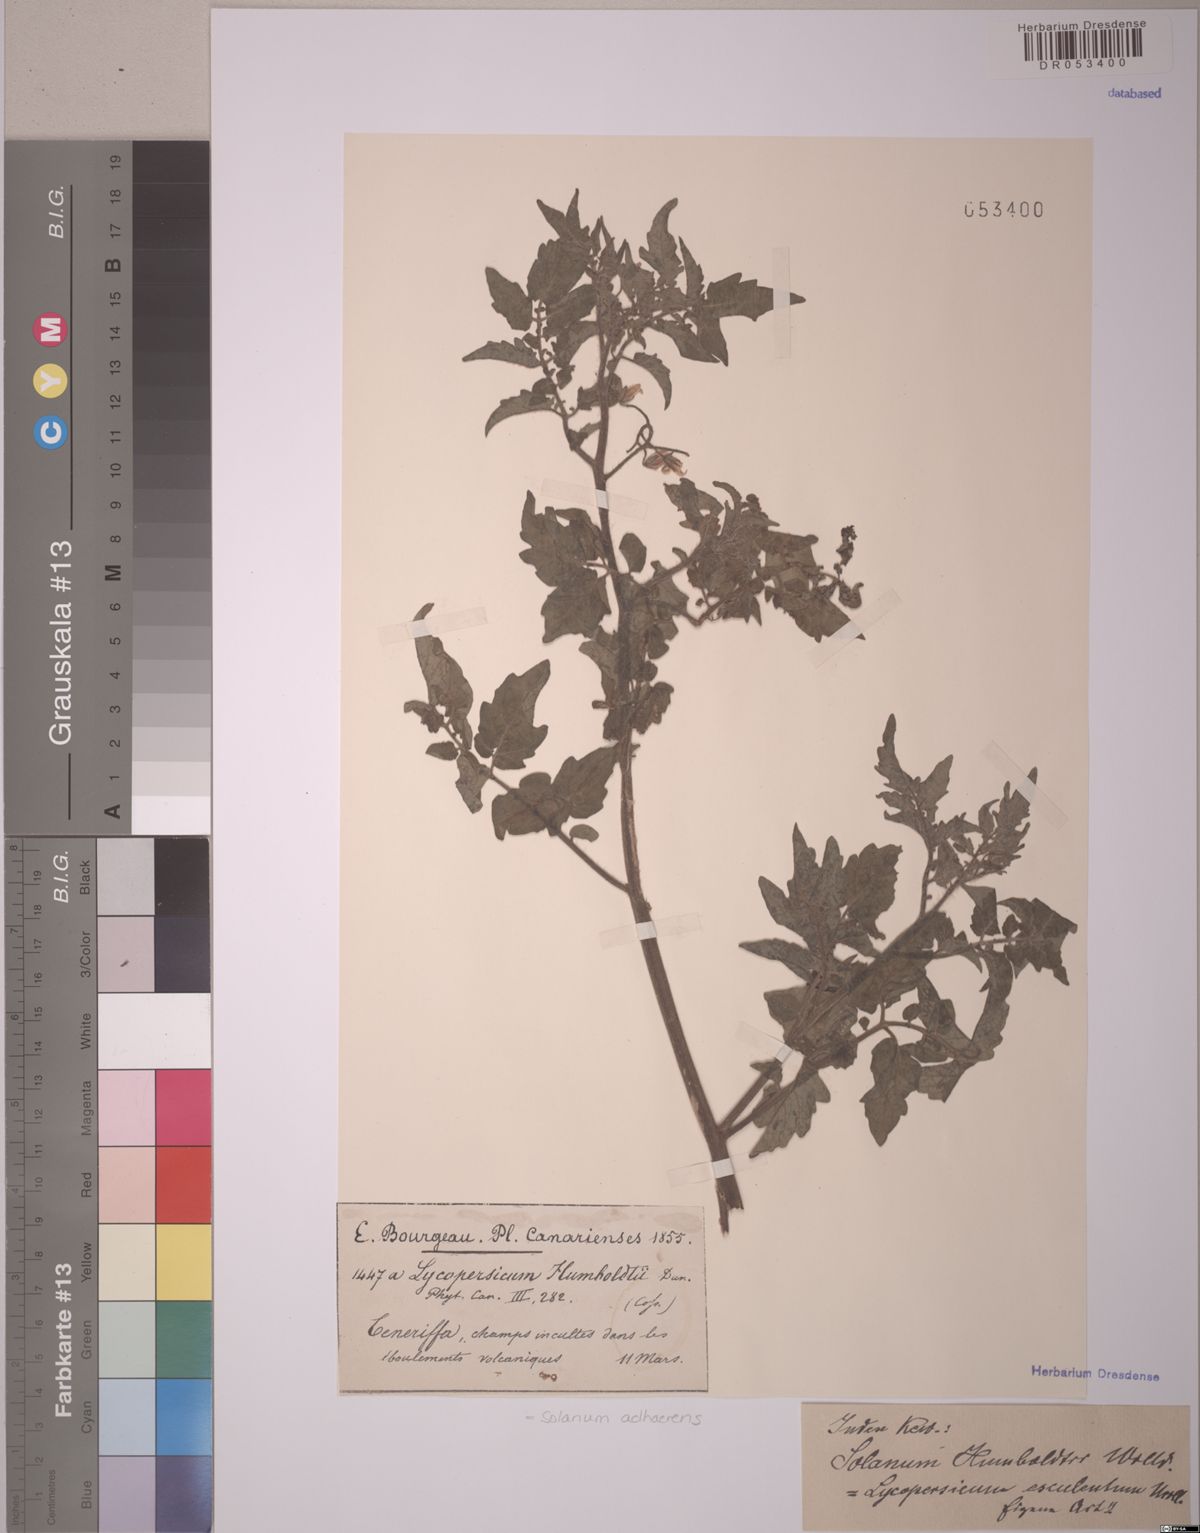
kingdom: Plantae
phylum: Tracheophyta
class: Magnoliopsida
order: Solanales
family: Solanaceae
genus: Solanum
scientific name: Solanum volubile
